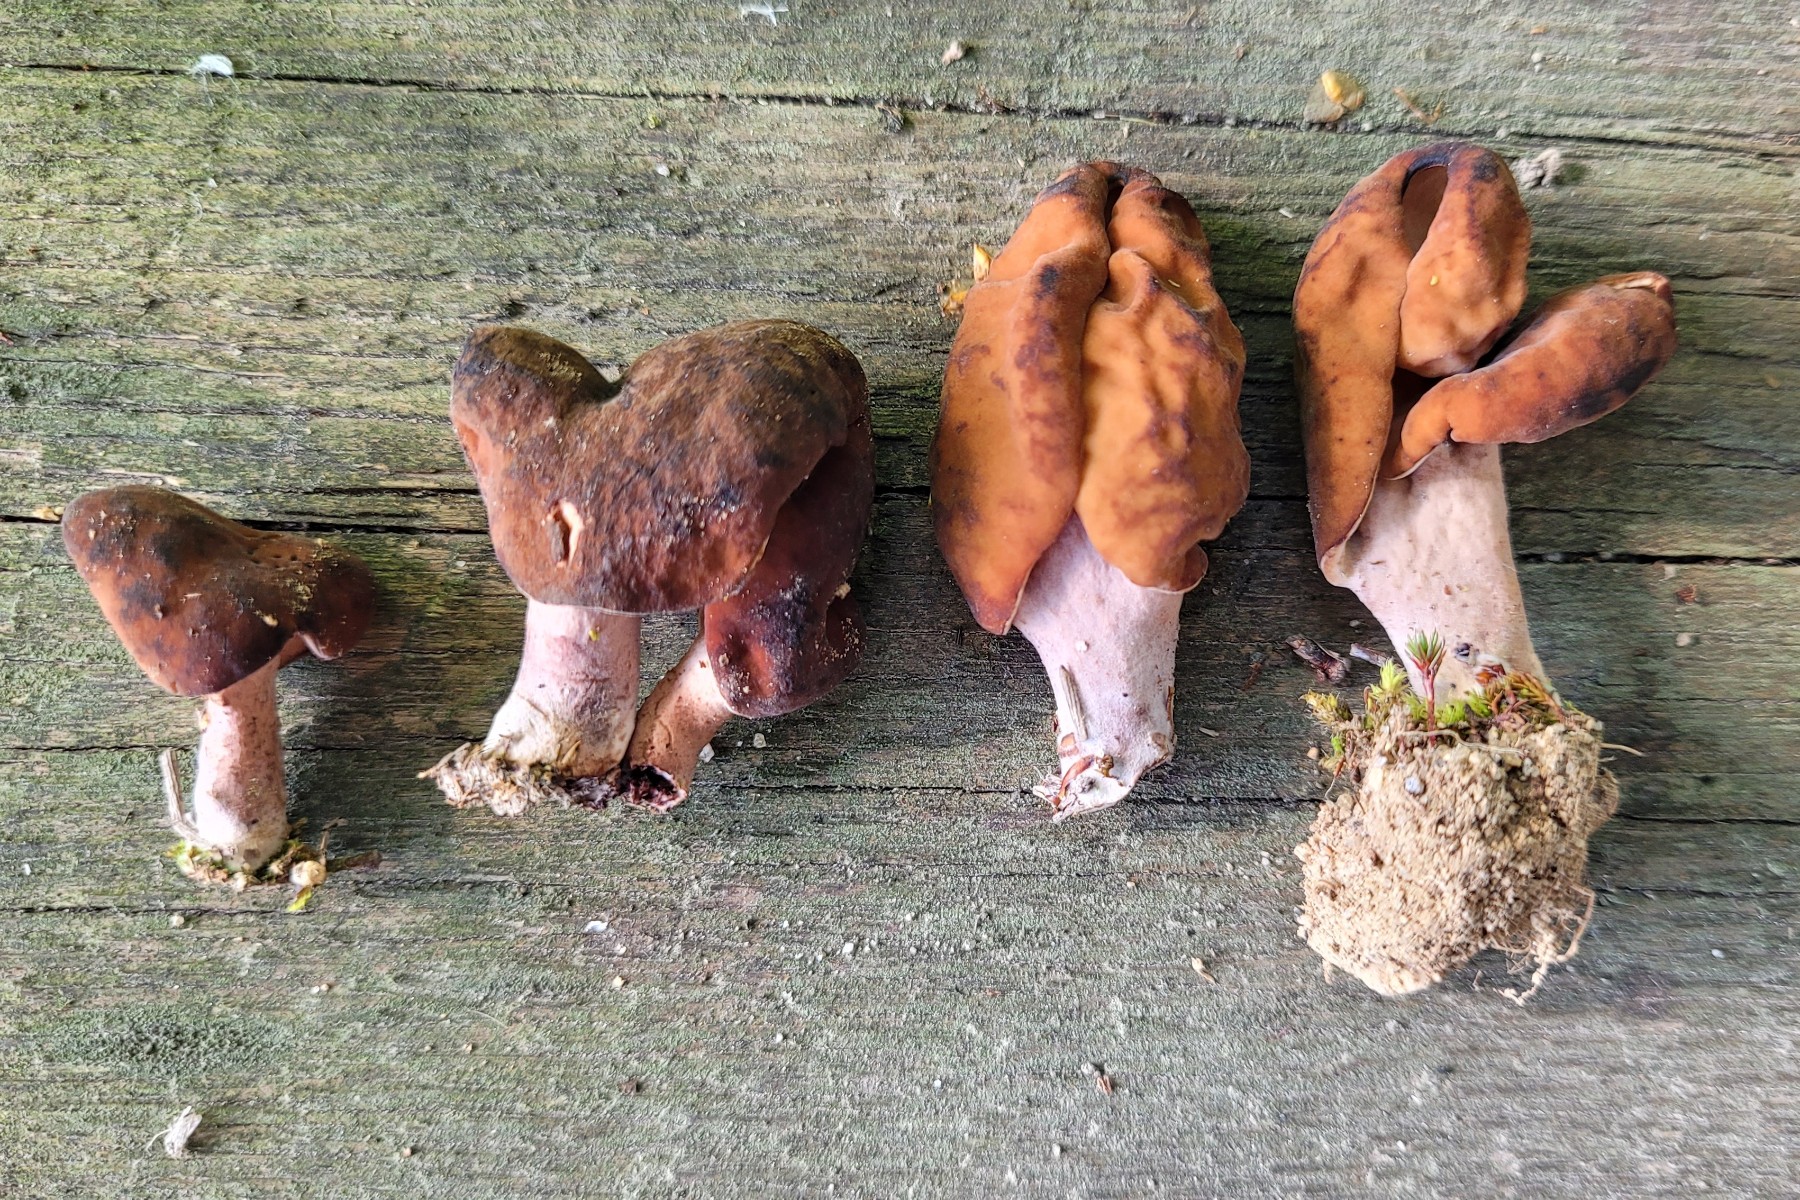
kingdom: Fungi
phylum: Ascomycota
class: Pezizomycetes
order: Pezizales
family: Discinaceae
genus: Gyromitra
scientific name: Gyromitra ambigua
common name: Changeable false morel
